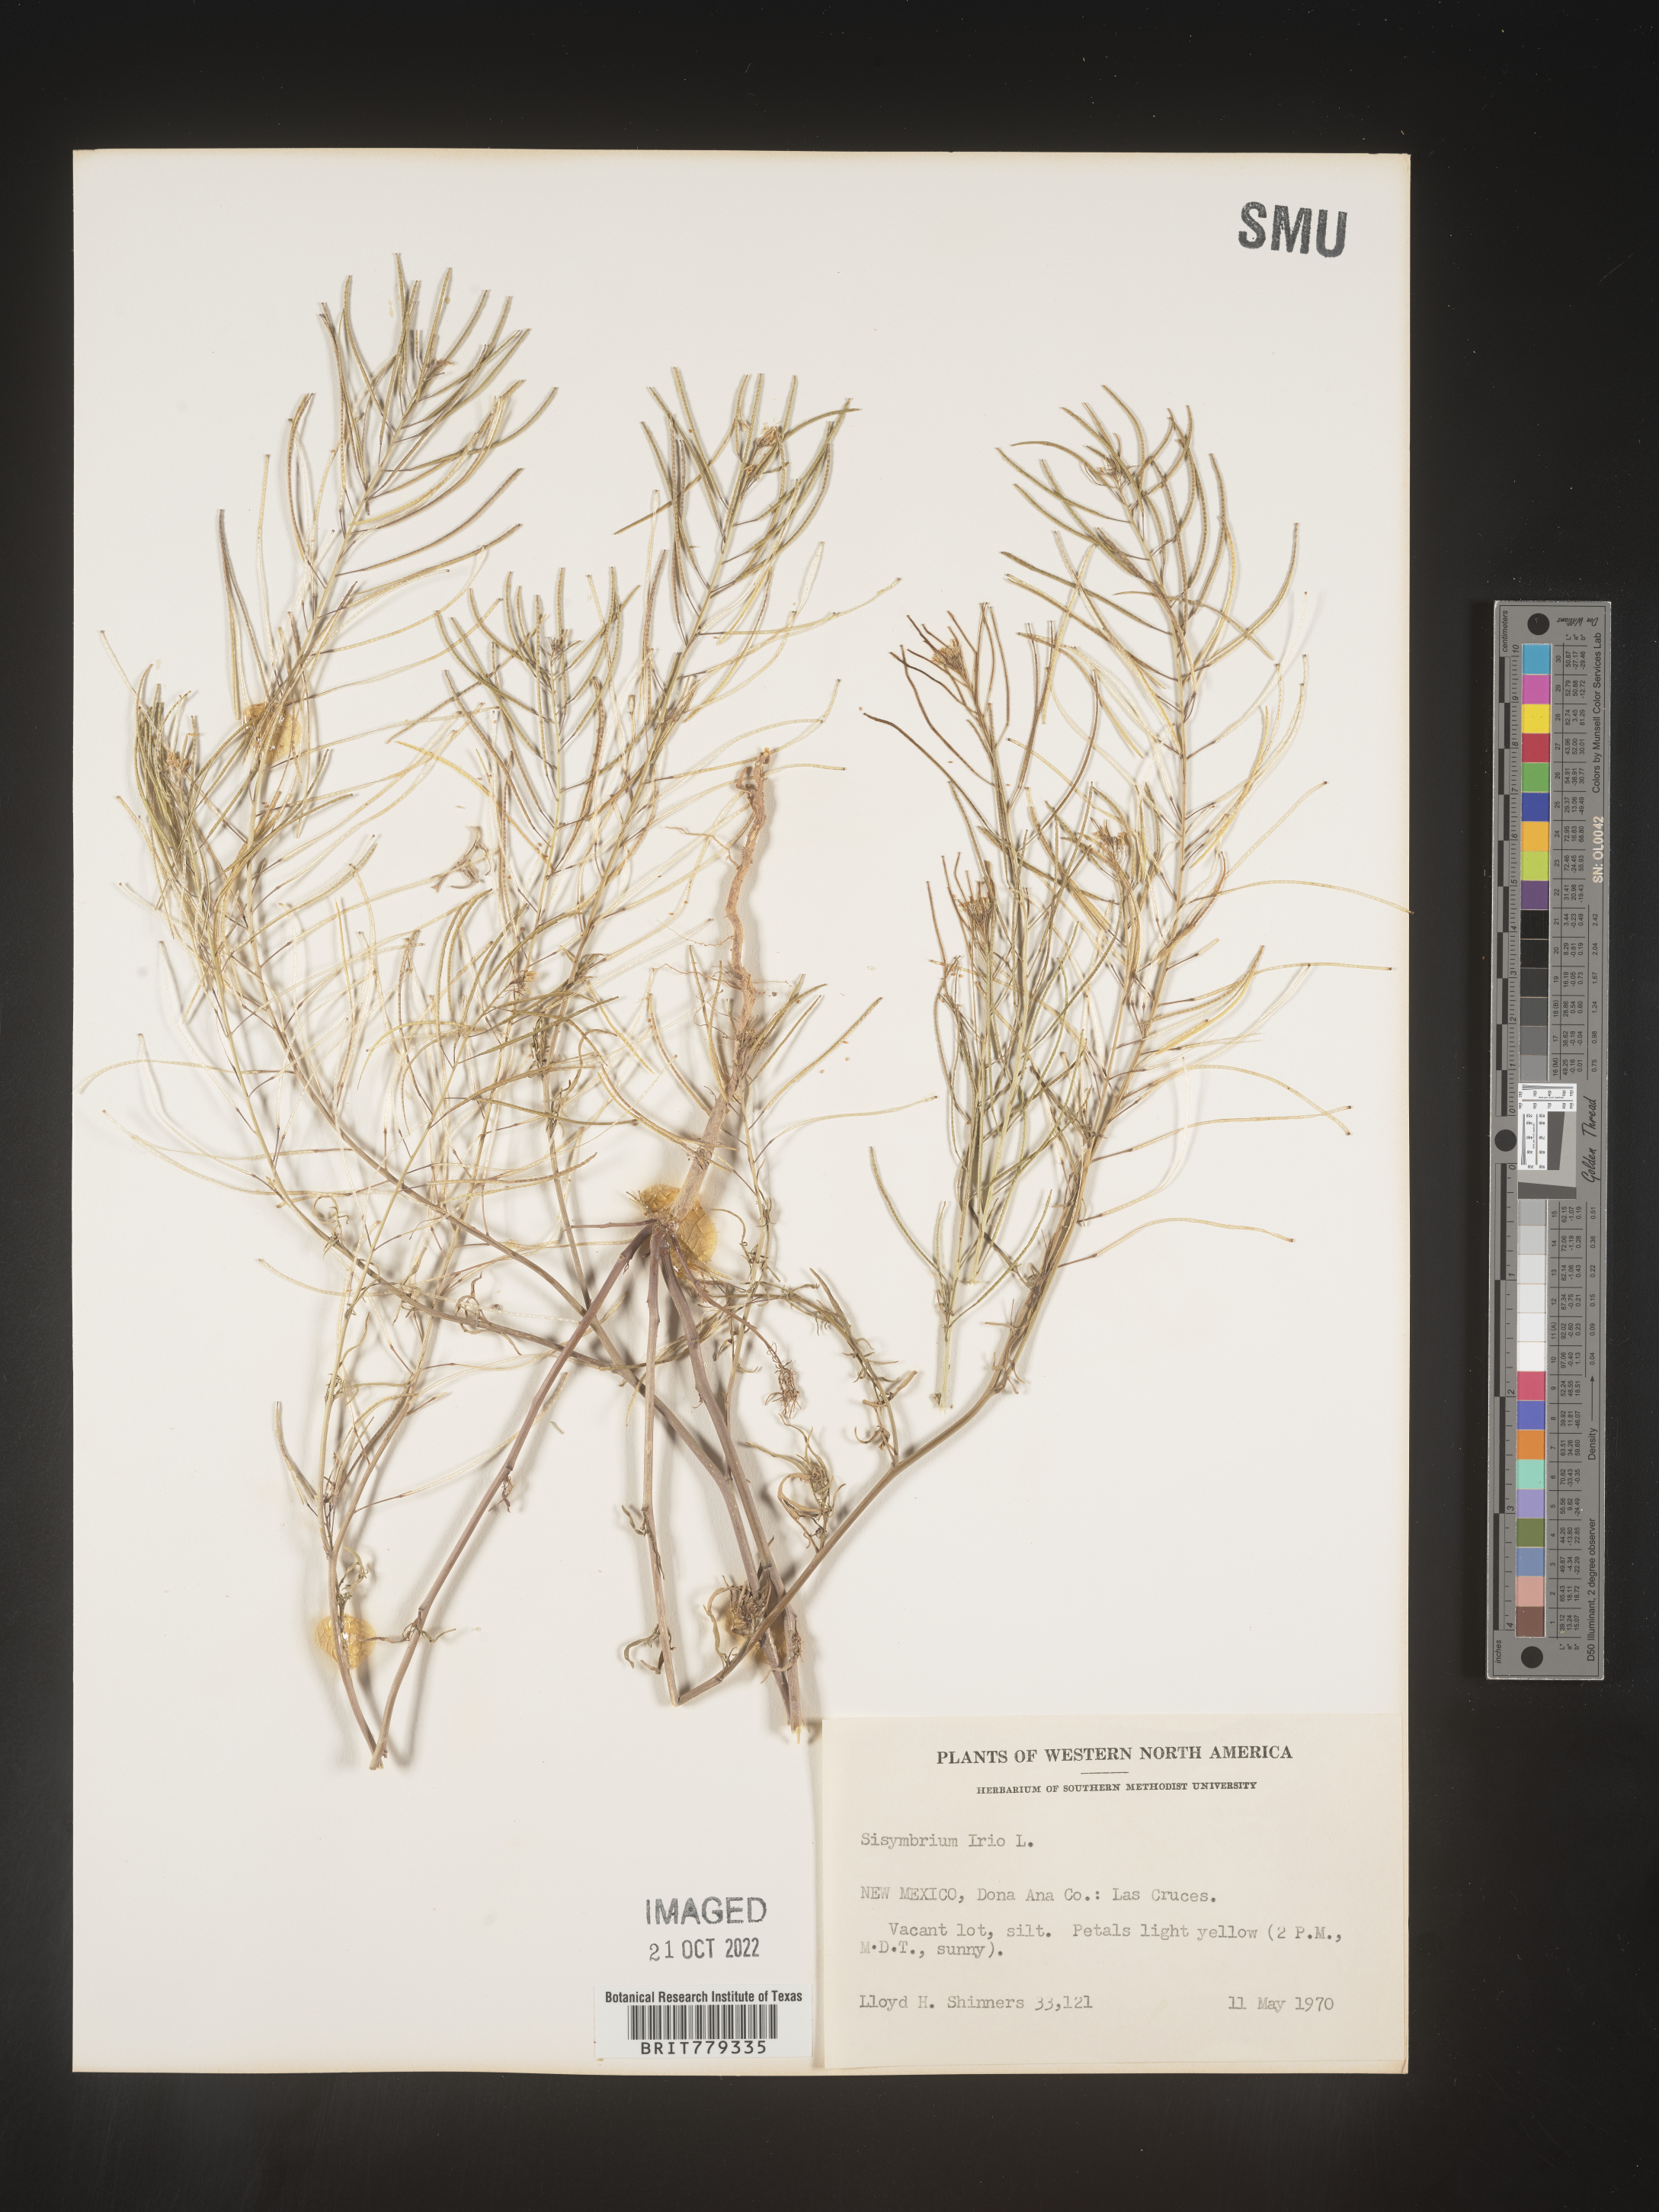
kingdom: Plantae
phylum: Tracheophyta
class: Magnoliopsida
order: Brassicales
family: Brassicaceae
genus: Sisymbrium
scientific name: Sisymbrium
